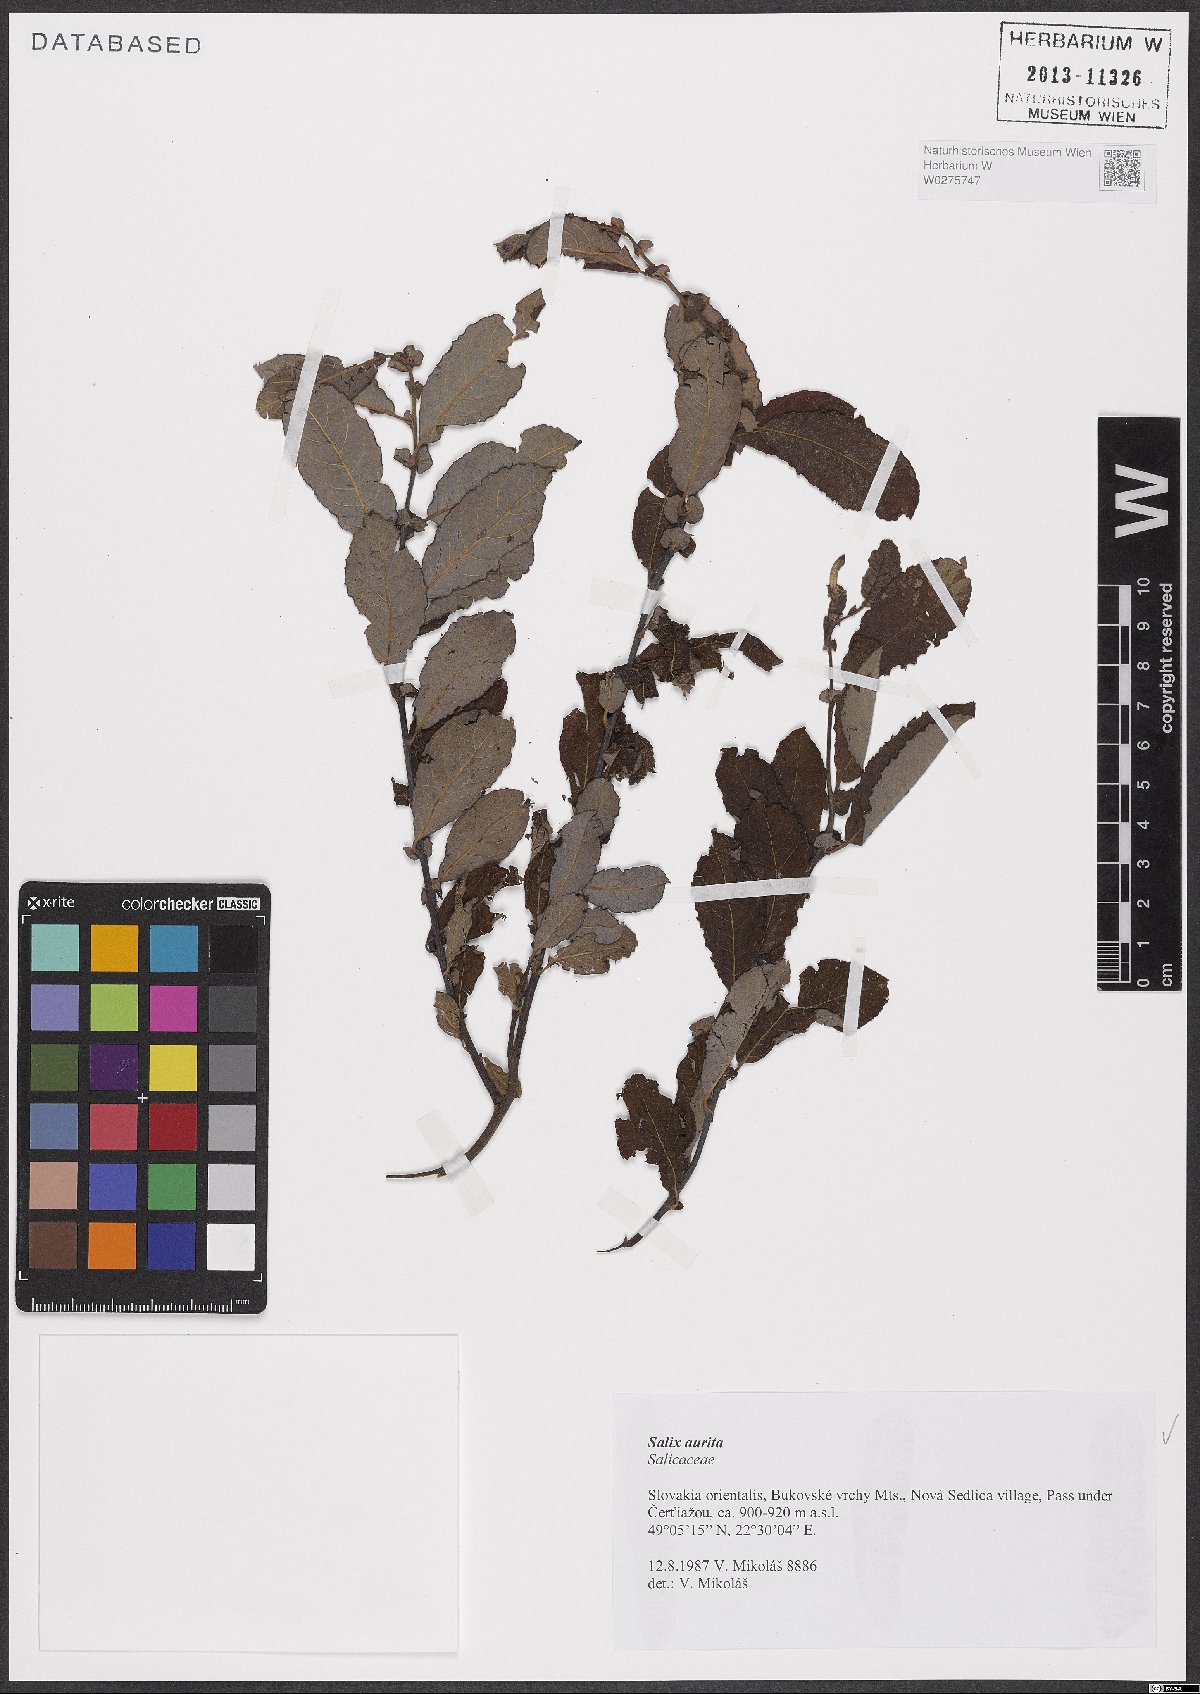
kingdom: Plantae
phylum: Tracheophyta
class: Magnoliopsida
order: Malpighiales
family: Salicaceae
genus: Salix
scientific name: Salix aurita
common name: Eared willow
